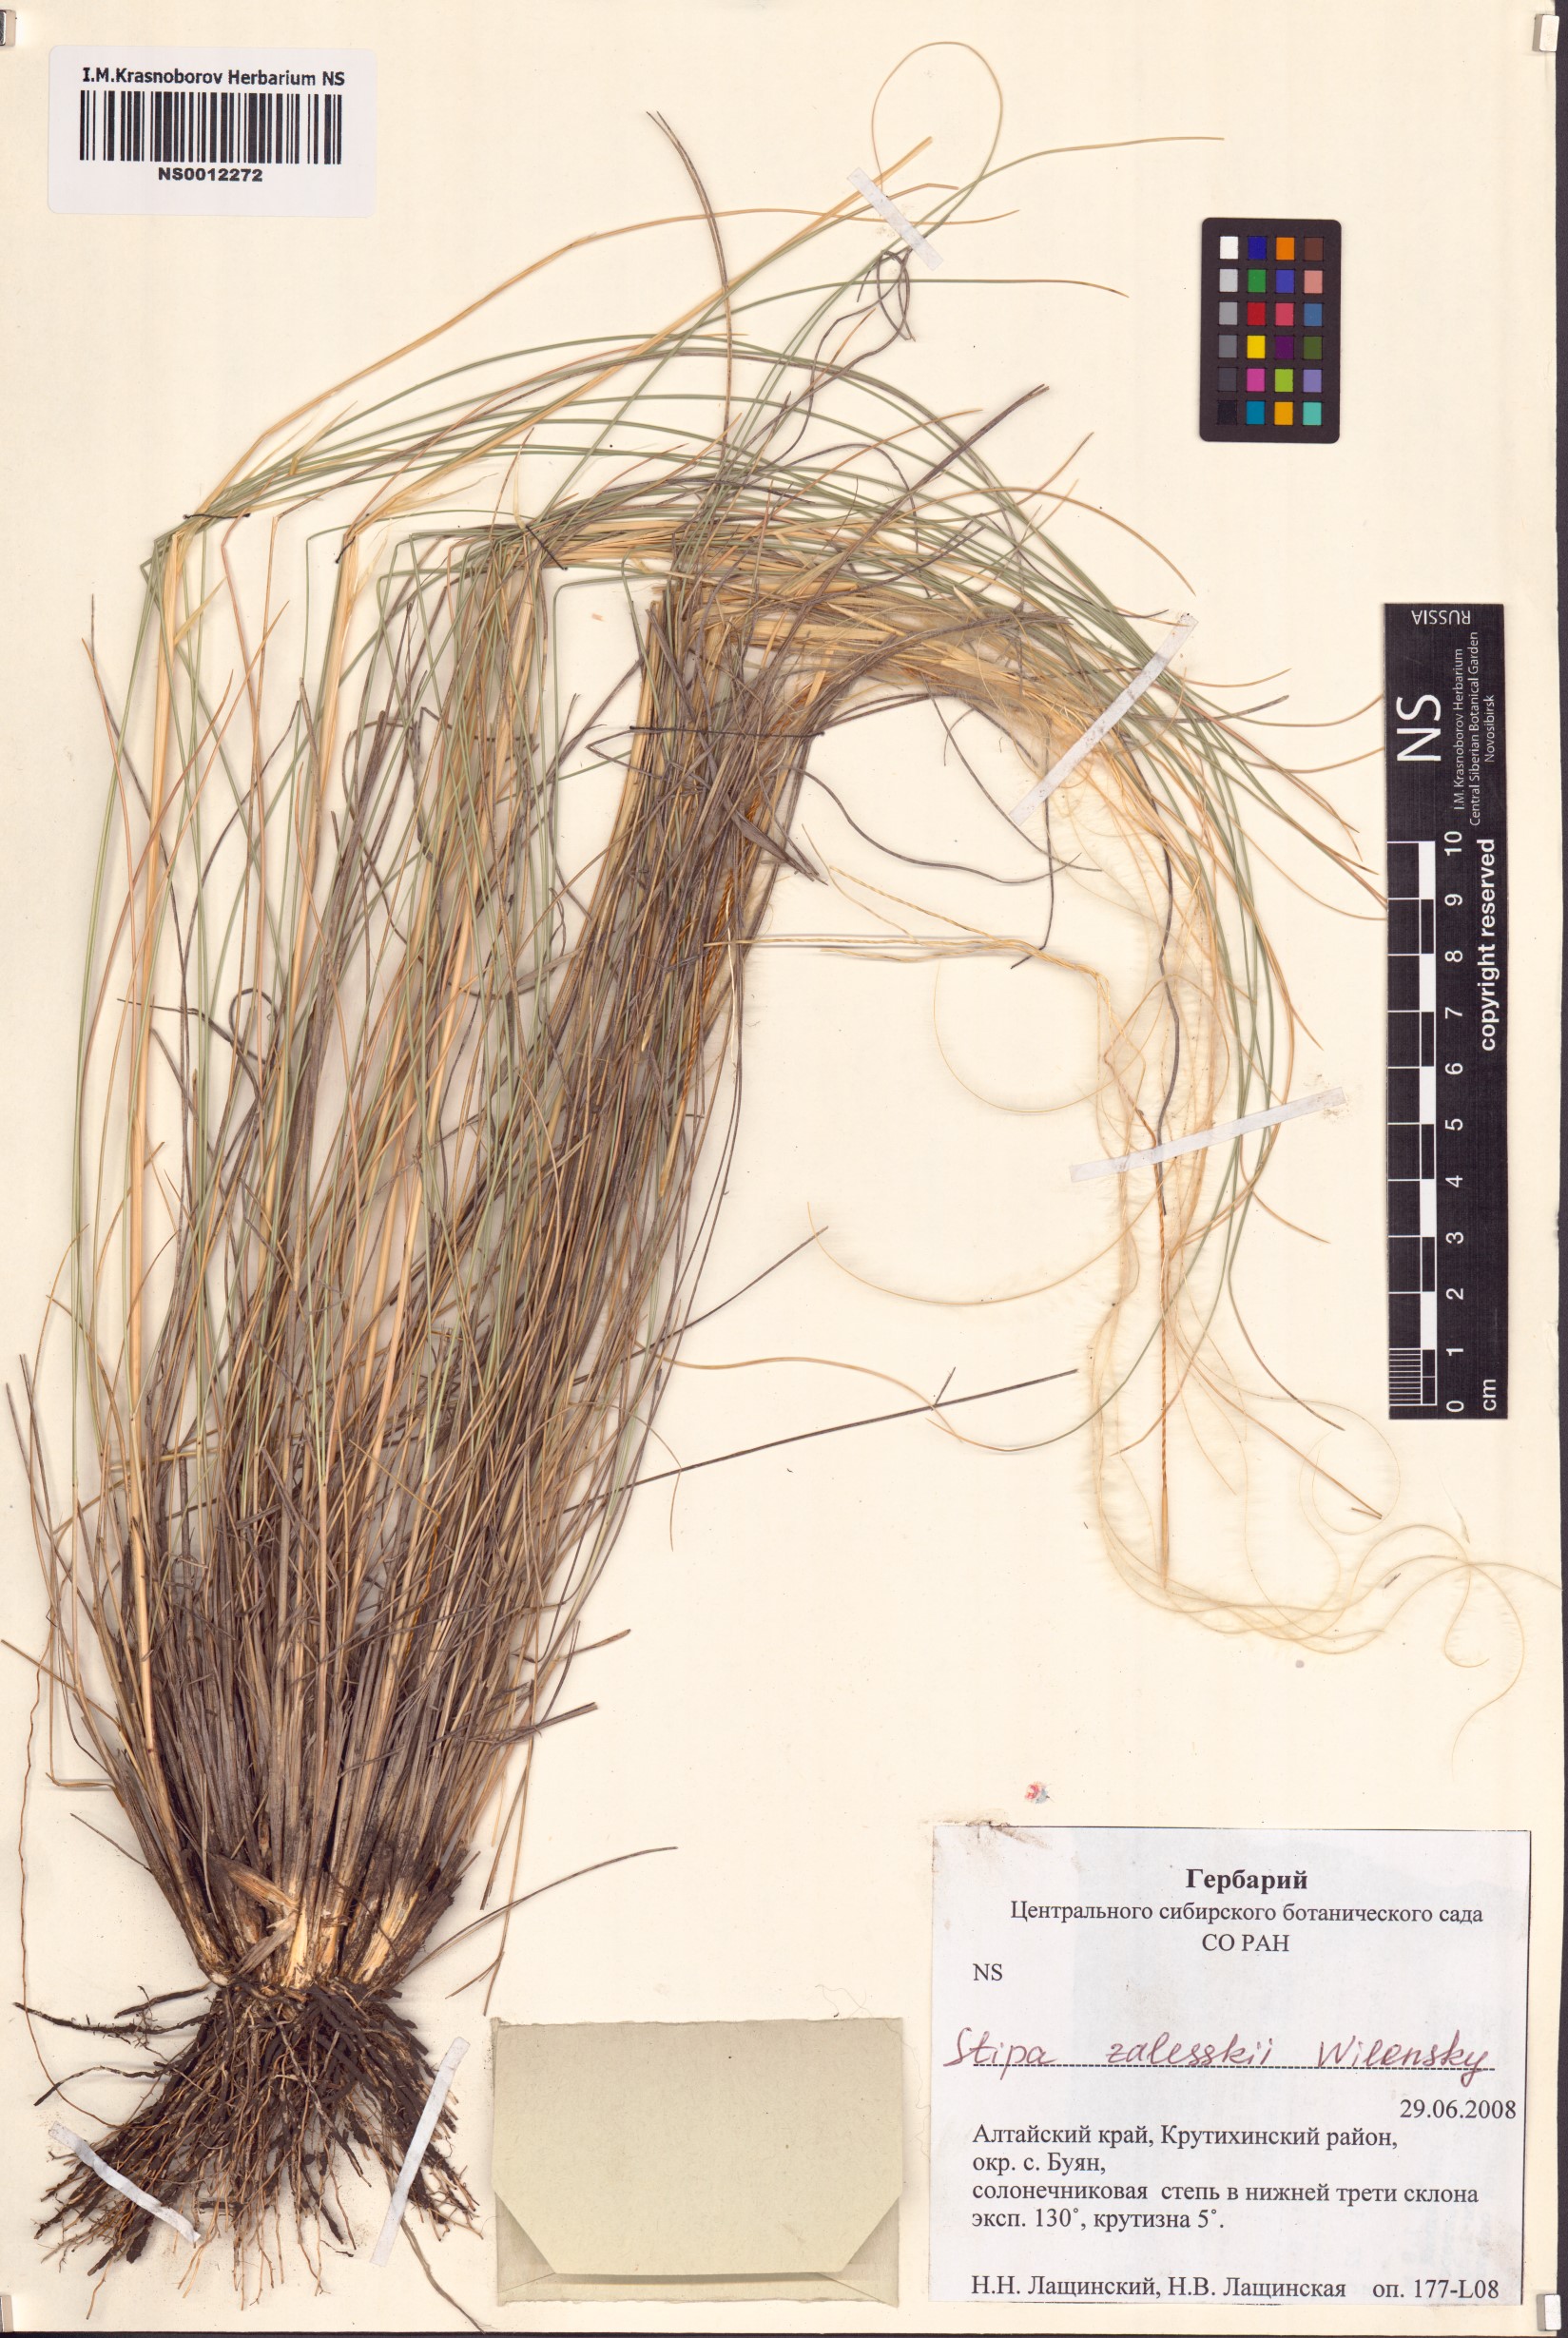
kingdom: Plantae
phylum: Tracheophyta
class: Liliopsida
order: Poales
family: Poaceae
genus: Stipa
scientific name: Stipa zalesskii
